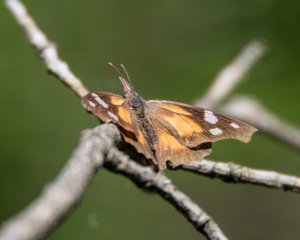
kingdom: Animalia
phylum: Arthropoda
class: Insecta
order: Lepidoptera
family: Nymphalidae
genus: Libytheana
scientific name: Libytheana carinenta
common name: American Snout
